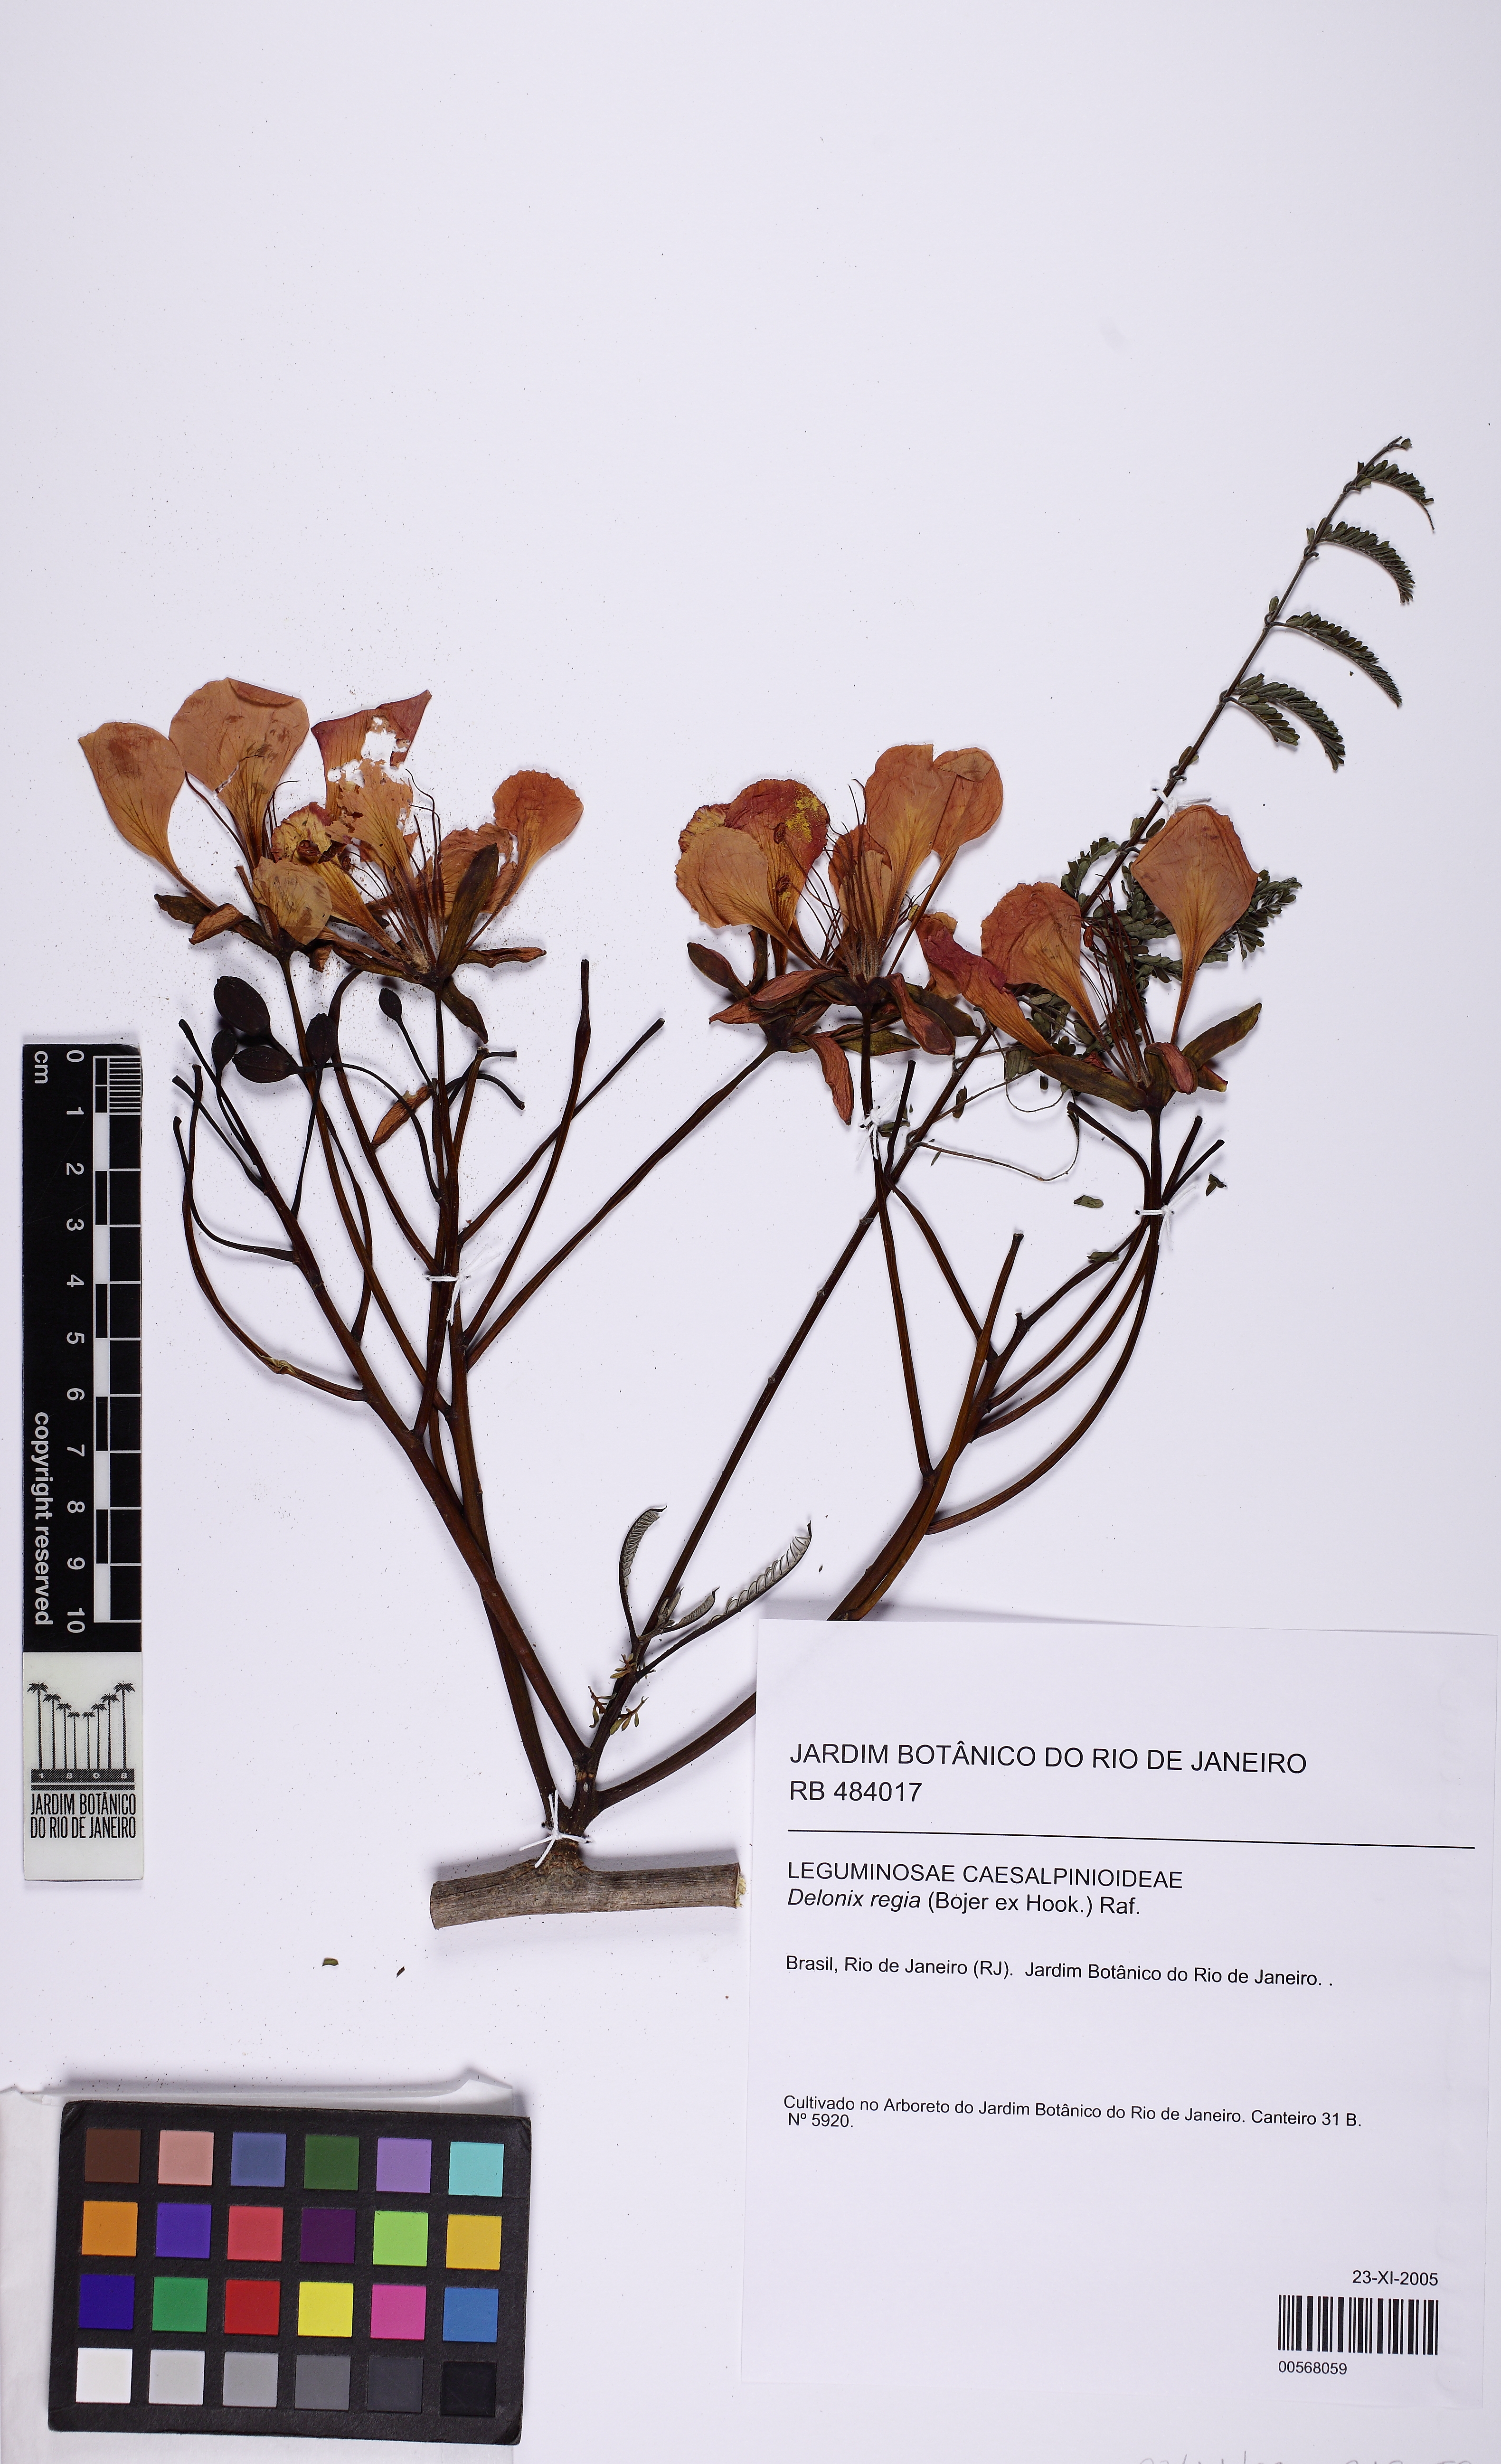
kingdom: Plantae
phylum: Tracheophyta
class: Magnoliopsida
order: Fabales
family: Fabaceae
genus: Delonix
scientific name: Delonix regia
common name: Royal poinciana
